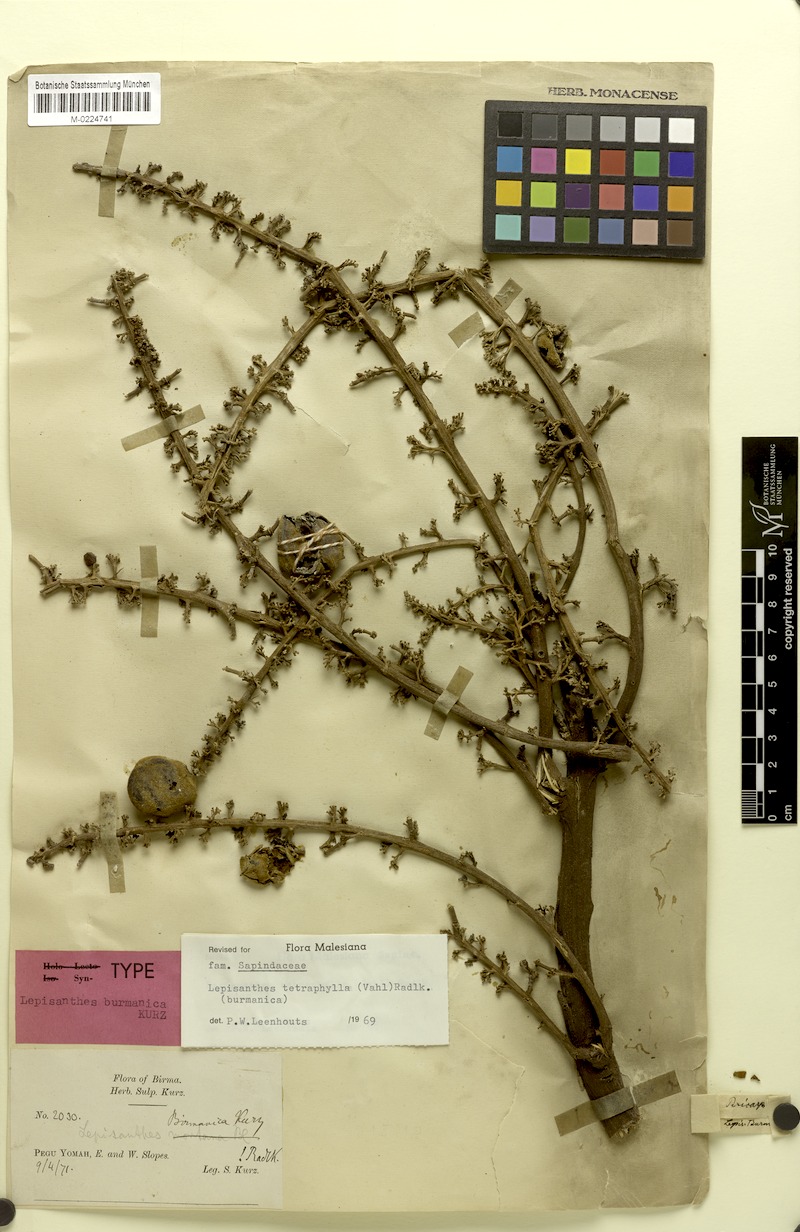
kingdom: Plantae
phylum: Tracheophyta
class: Magnoliopsida
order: Sapindales
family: Sapindaceae
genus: Lepisanthes
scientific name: Lepisanthes tetraphylla
